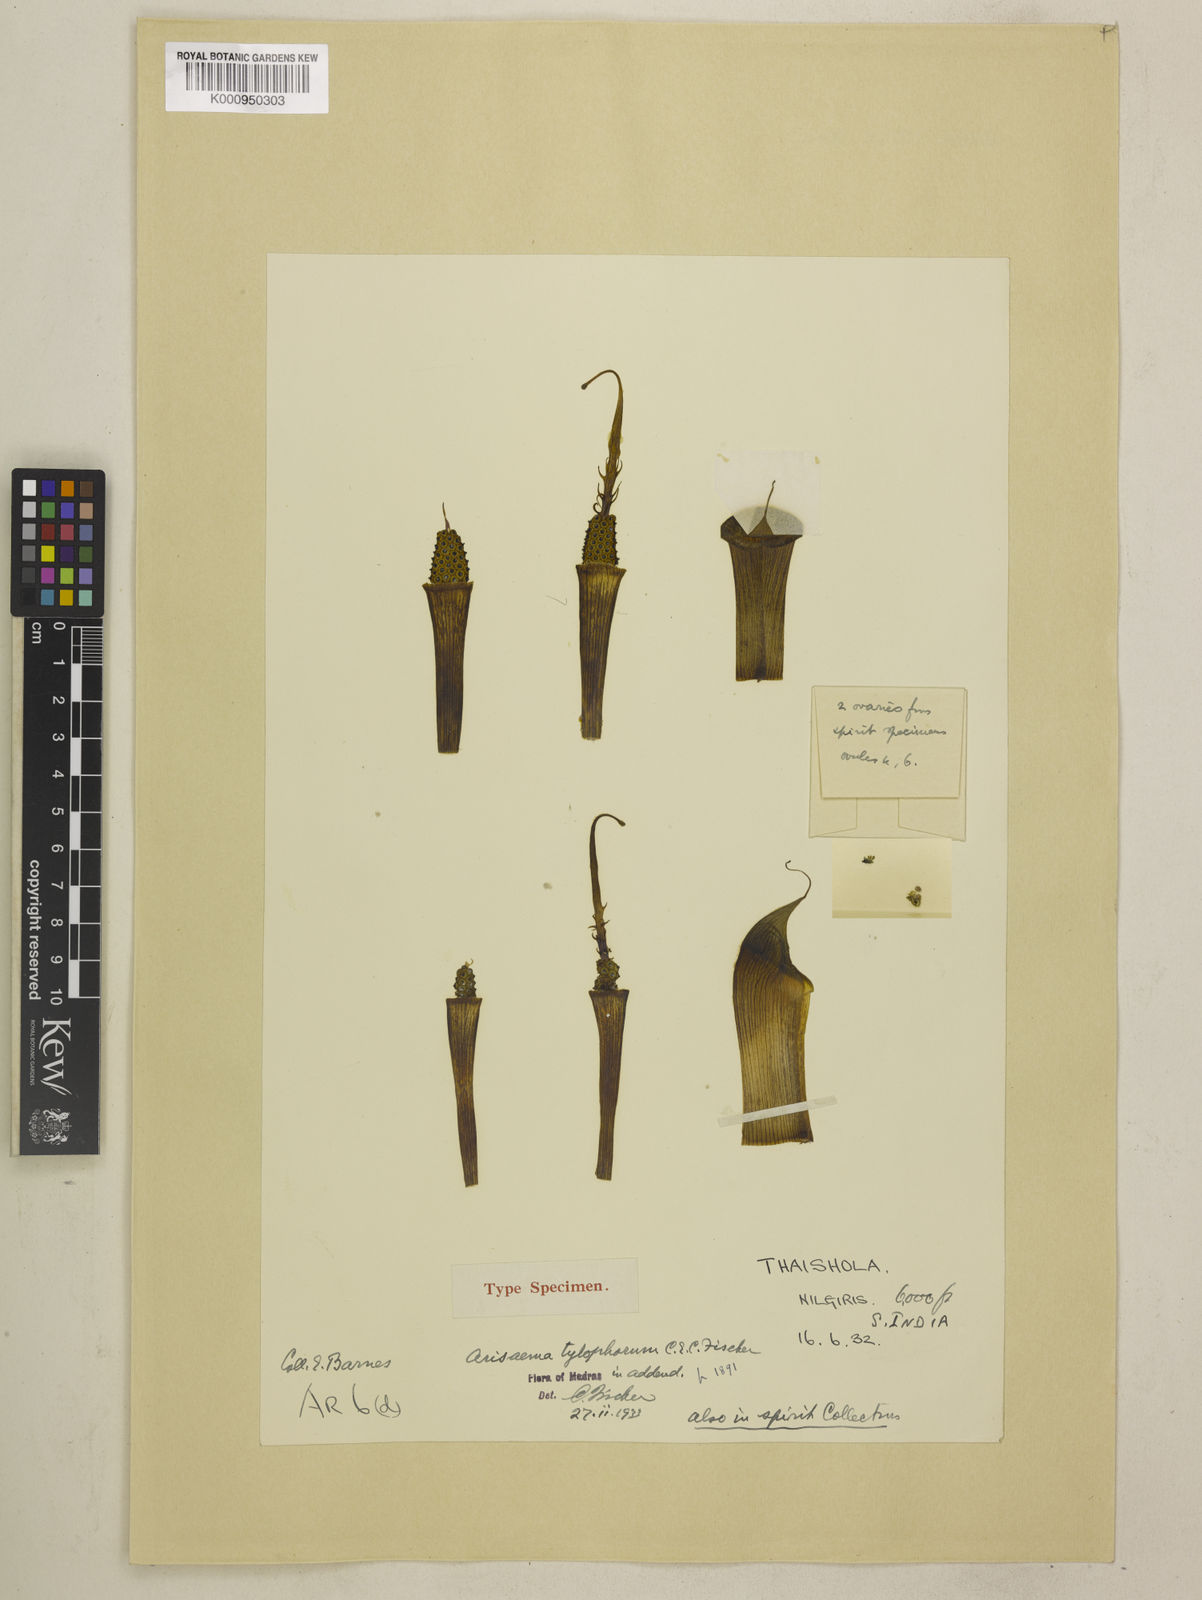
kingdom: Plantae
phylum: Tracheophyta
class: Liliopsida
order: Alismatales
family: Araceae
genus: Arisaema
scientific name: Arisaema barnesii
